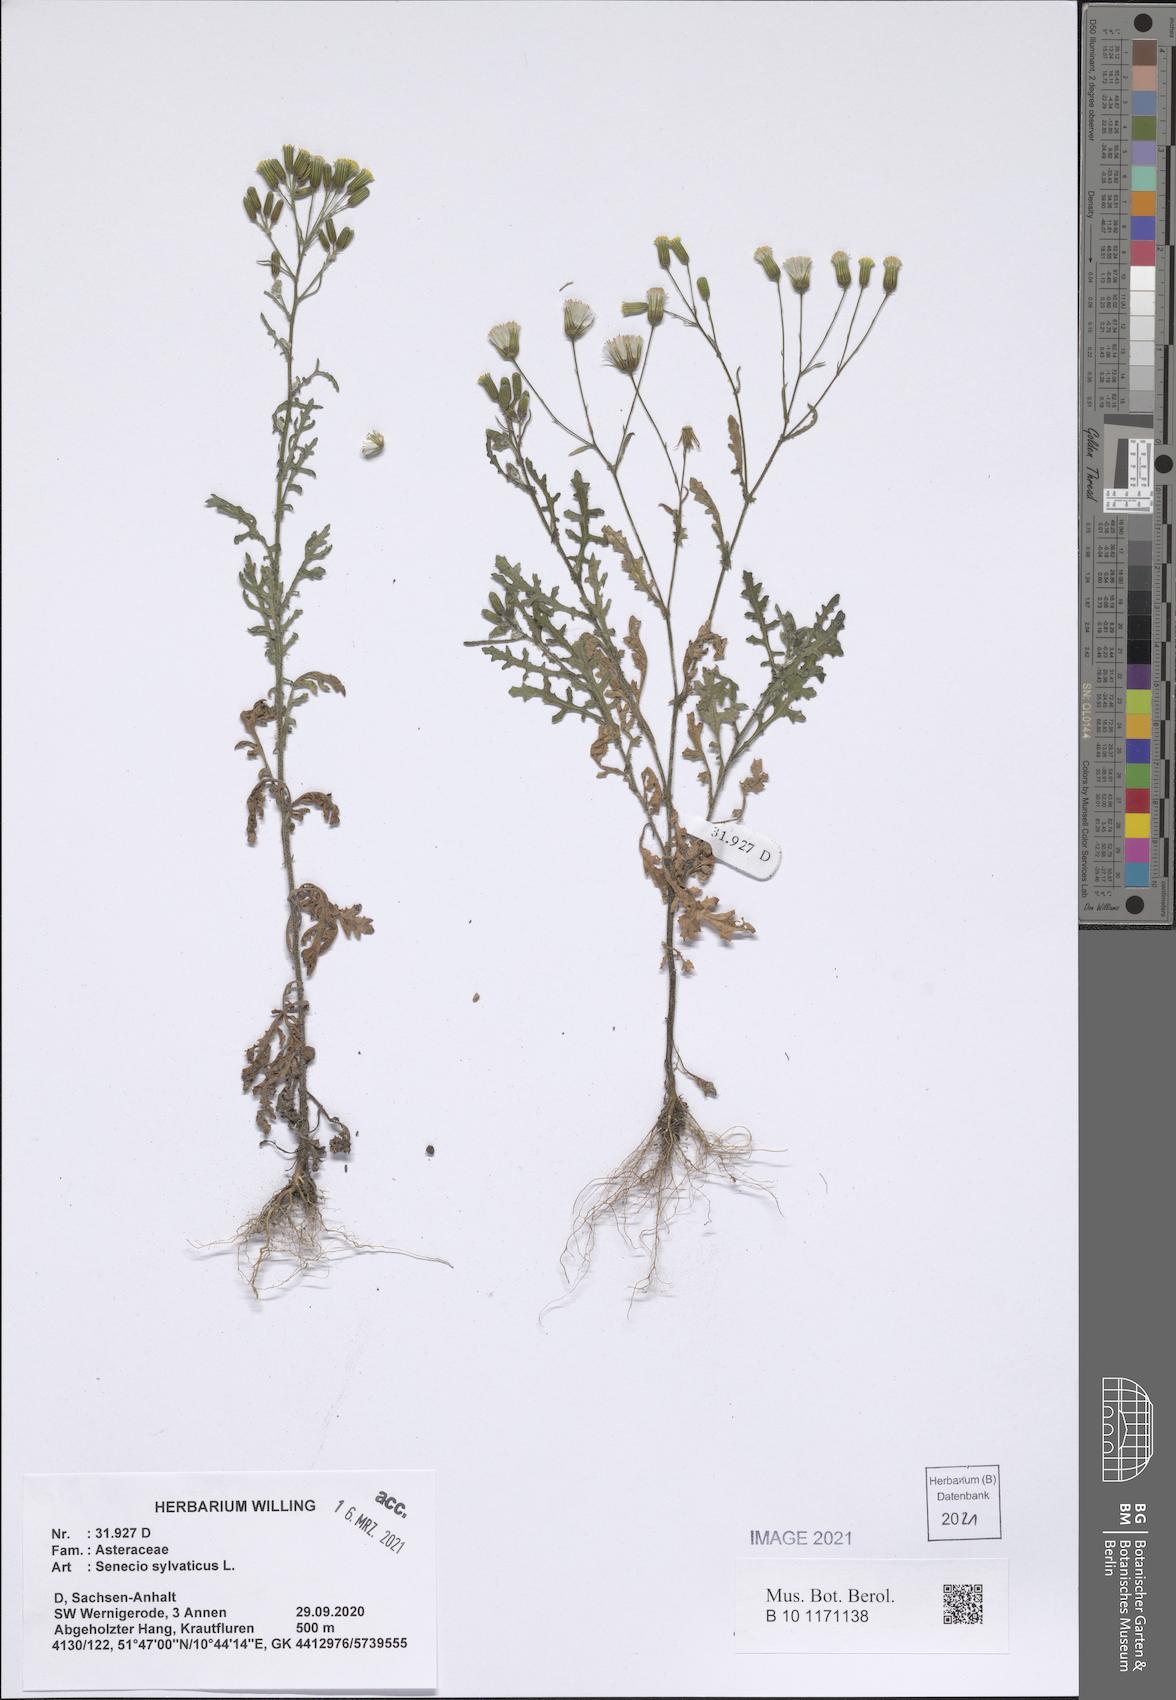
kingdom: Plantae
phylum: Tracheophyta
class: Magnoliopsida
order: Asterales
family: Asteraceae
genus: Senecio
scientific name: Senecio sylvaticus
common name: Woodland ragwort
